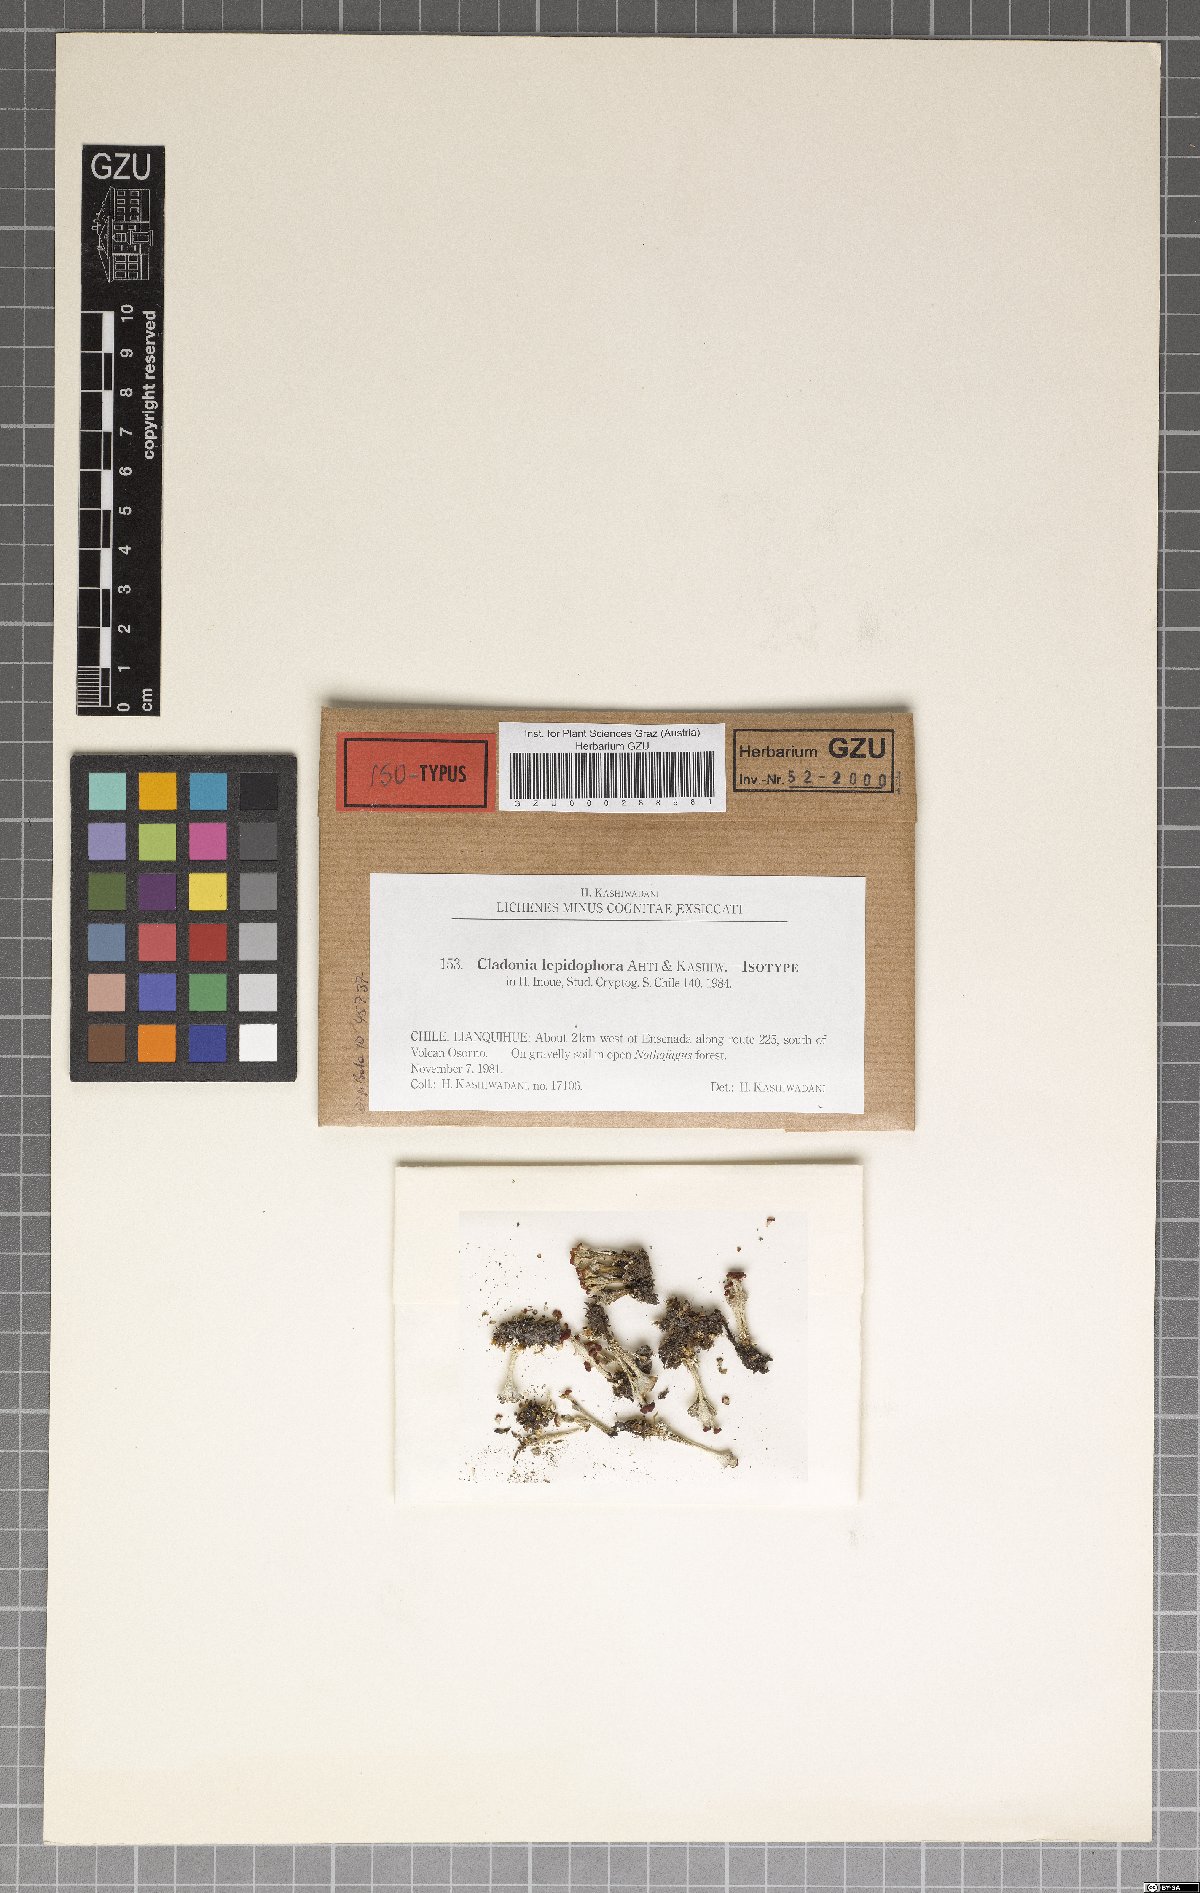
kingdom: Plantae
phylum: Marchantiophyta
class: Marchantiopsida
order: Marchantiales
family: Monocleaceae
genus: Monoclea
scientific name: Monoclea
